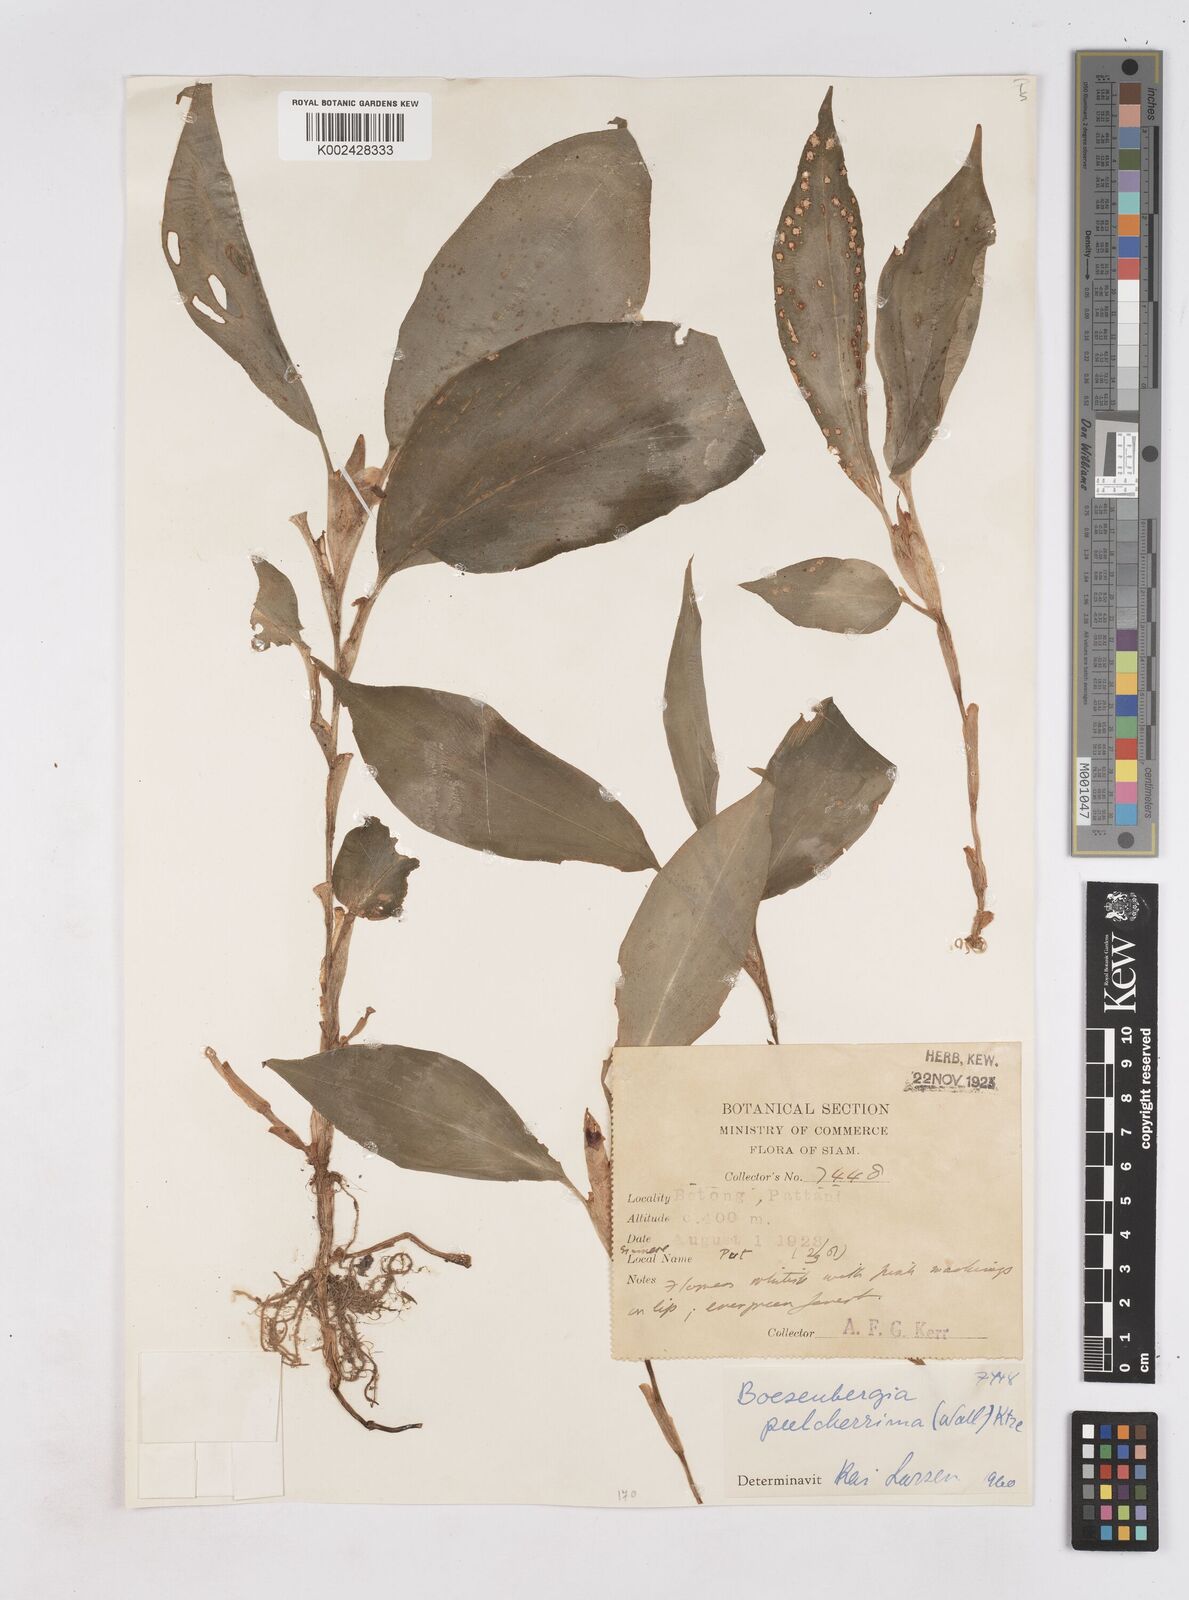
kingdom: Plantae
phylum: Tracheophyta
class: Liliopsida
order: Zingiberales
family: Zingiberaceae
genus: Boesenbergia
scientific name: Boesenbergia pulcherrima
